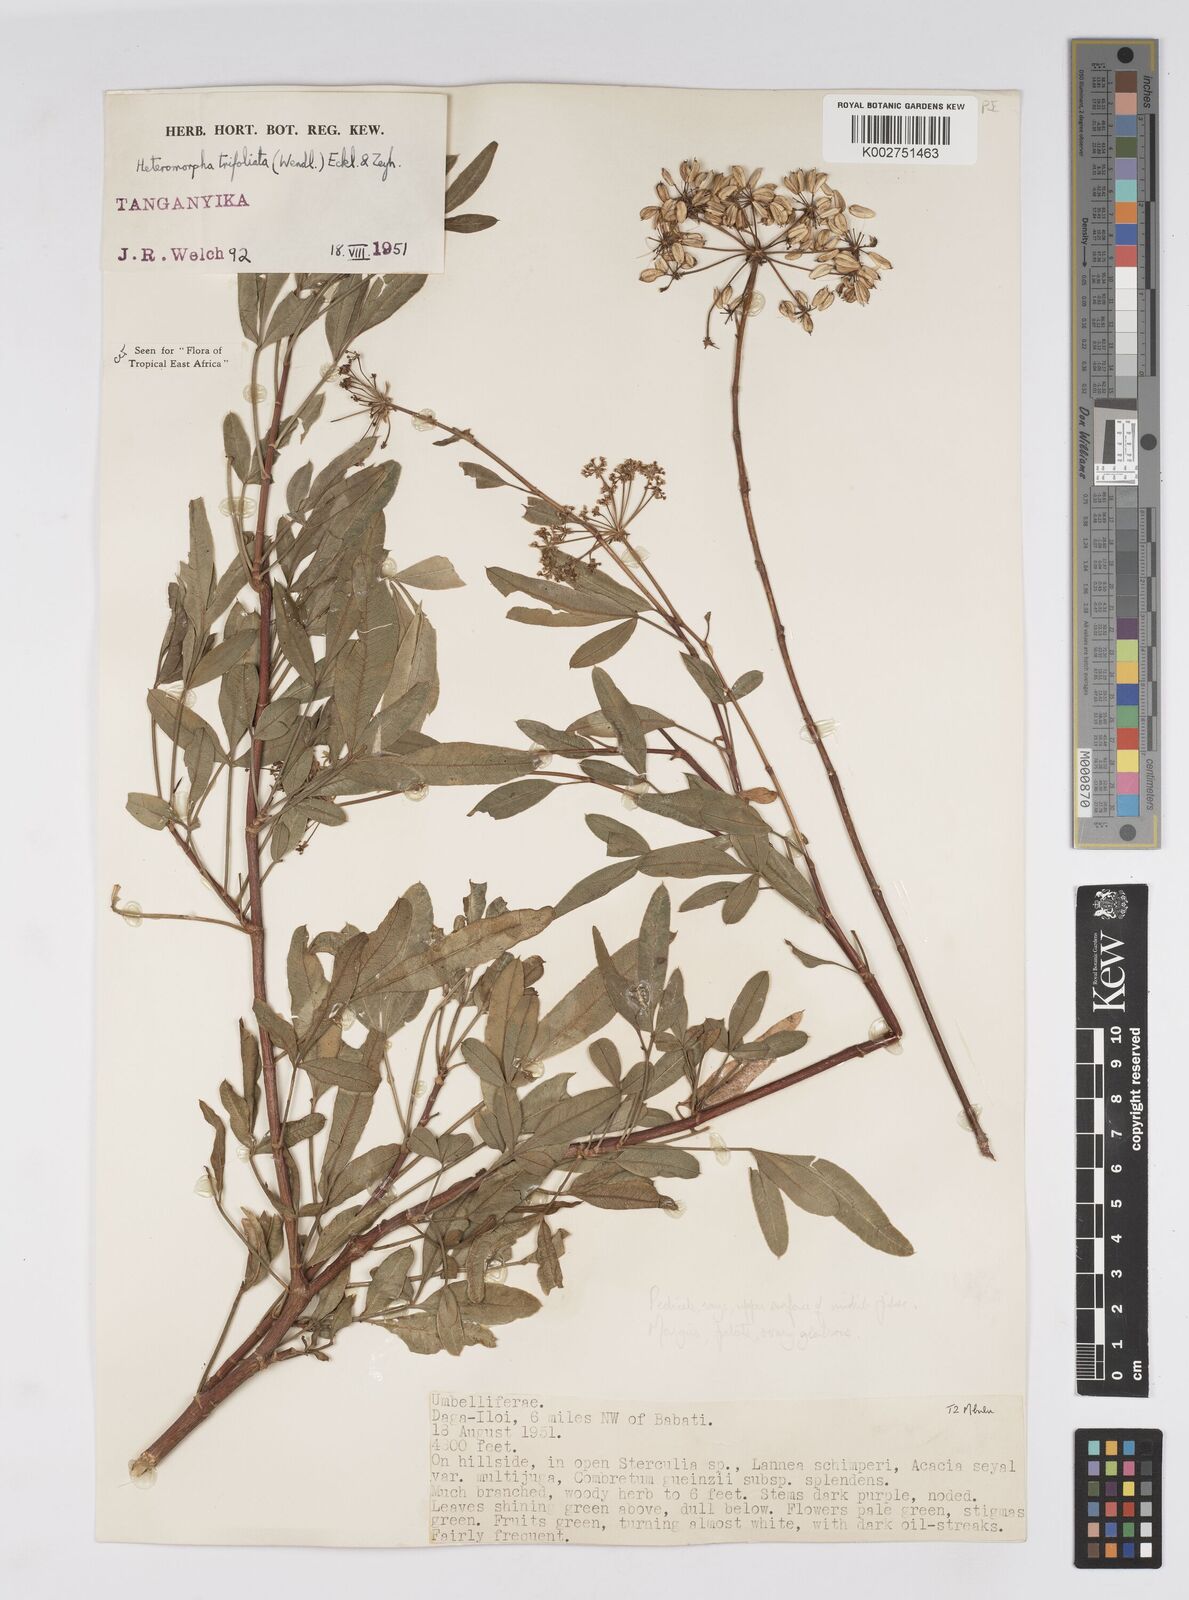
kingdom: Plantae
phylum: Tracheophyta
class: Magnoliopsida
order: Apiales
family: Apiaceae
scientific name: Apiaceae
